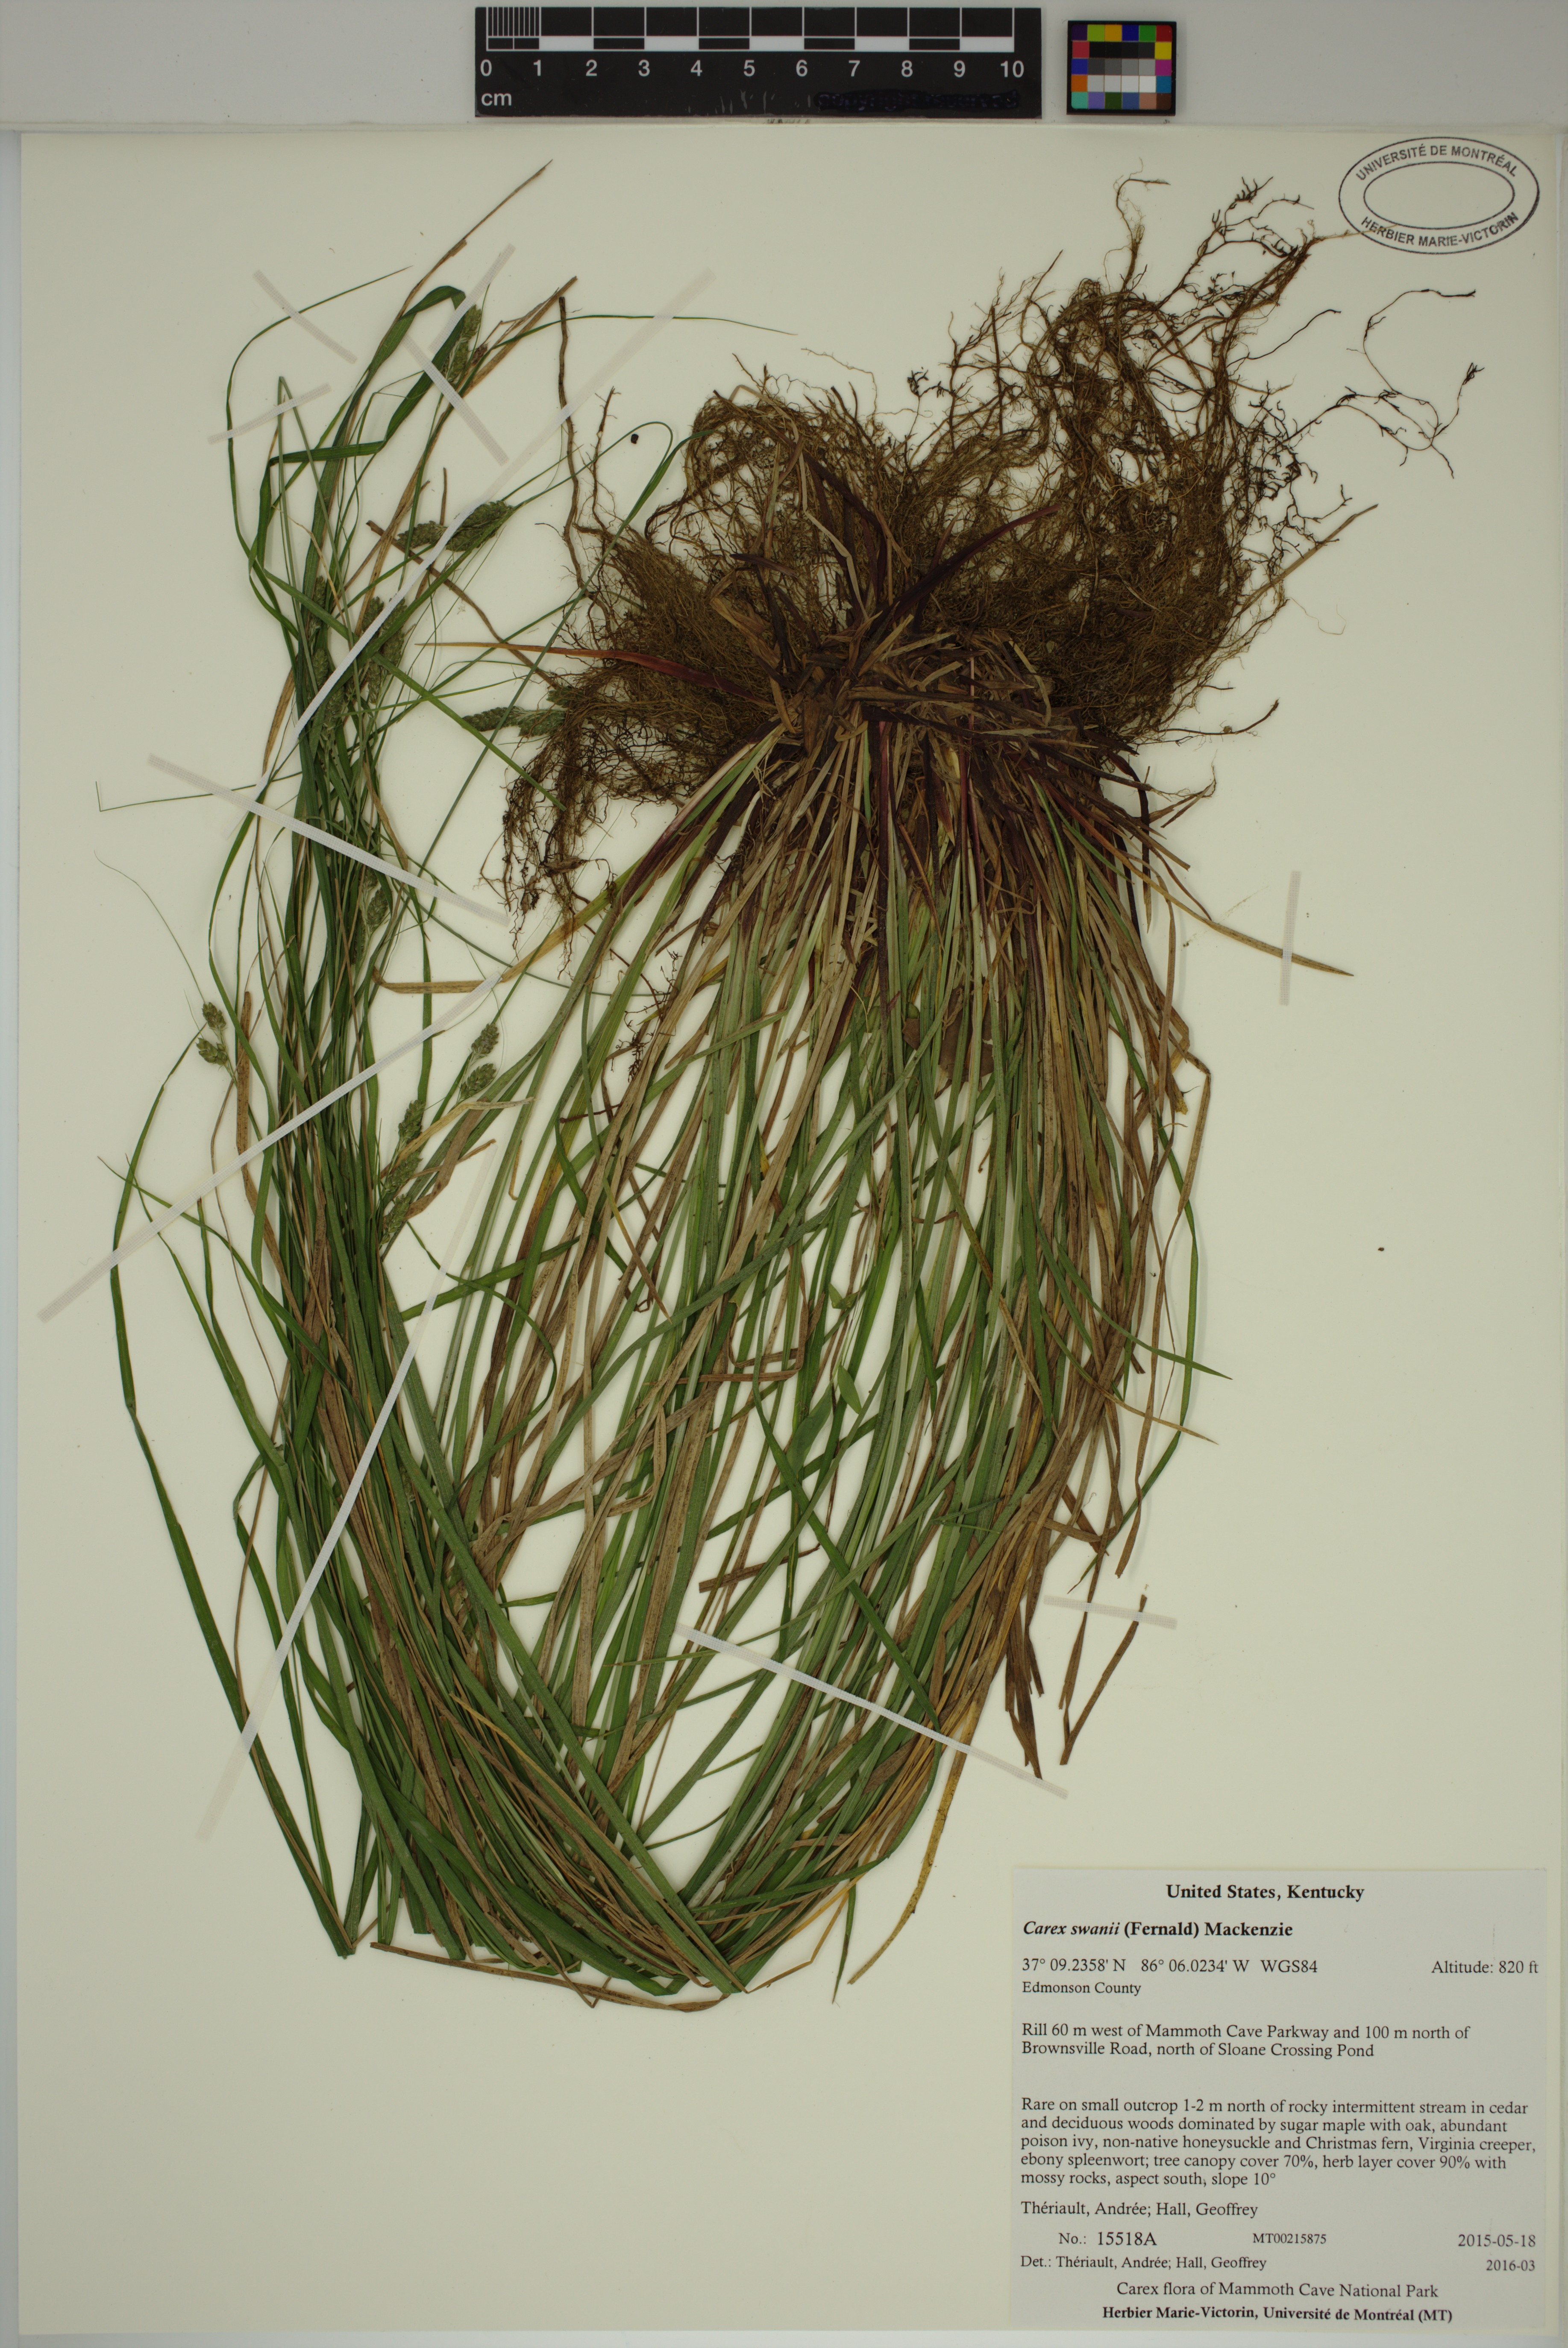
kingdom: Plantae
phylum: Tracheophyta
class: Liliopsida
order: Poales
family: Cyperaceae
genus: Carex
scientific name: Carex swanii
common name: Downy green sedge
